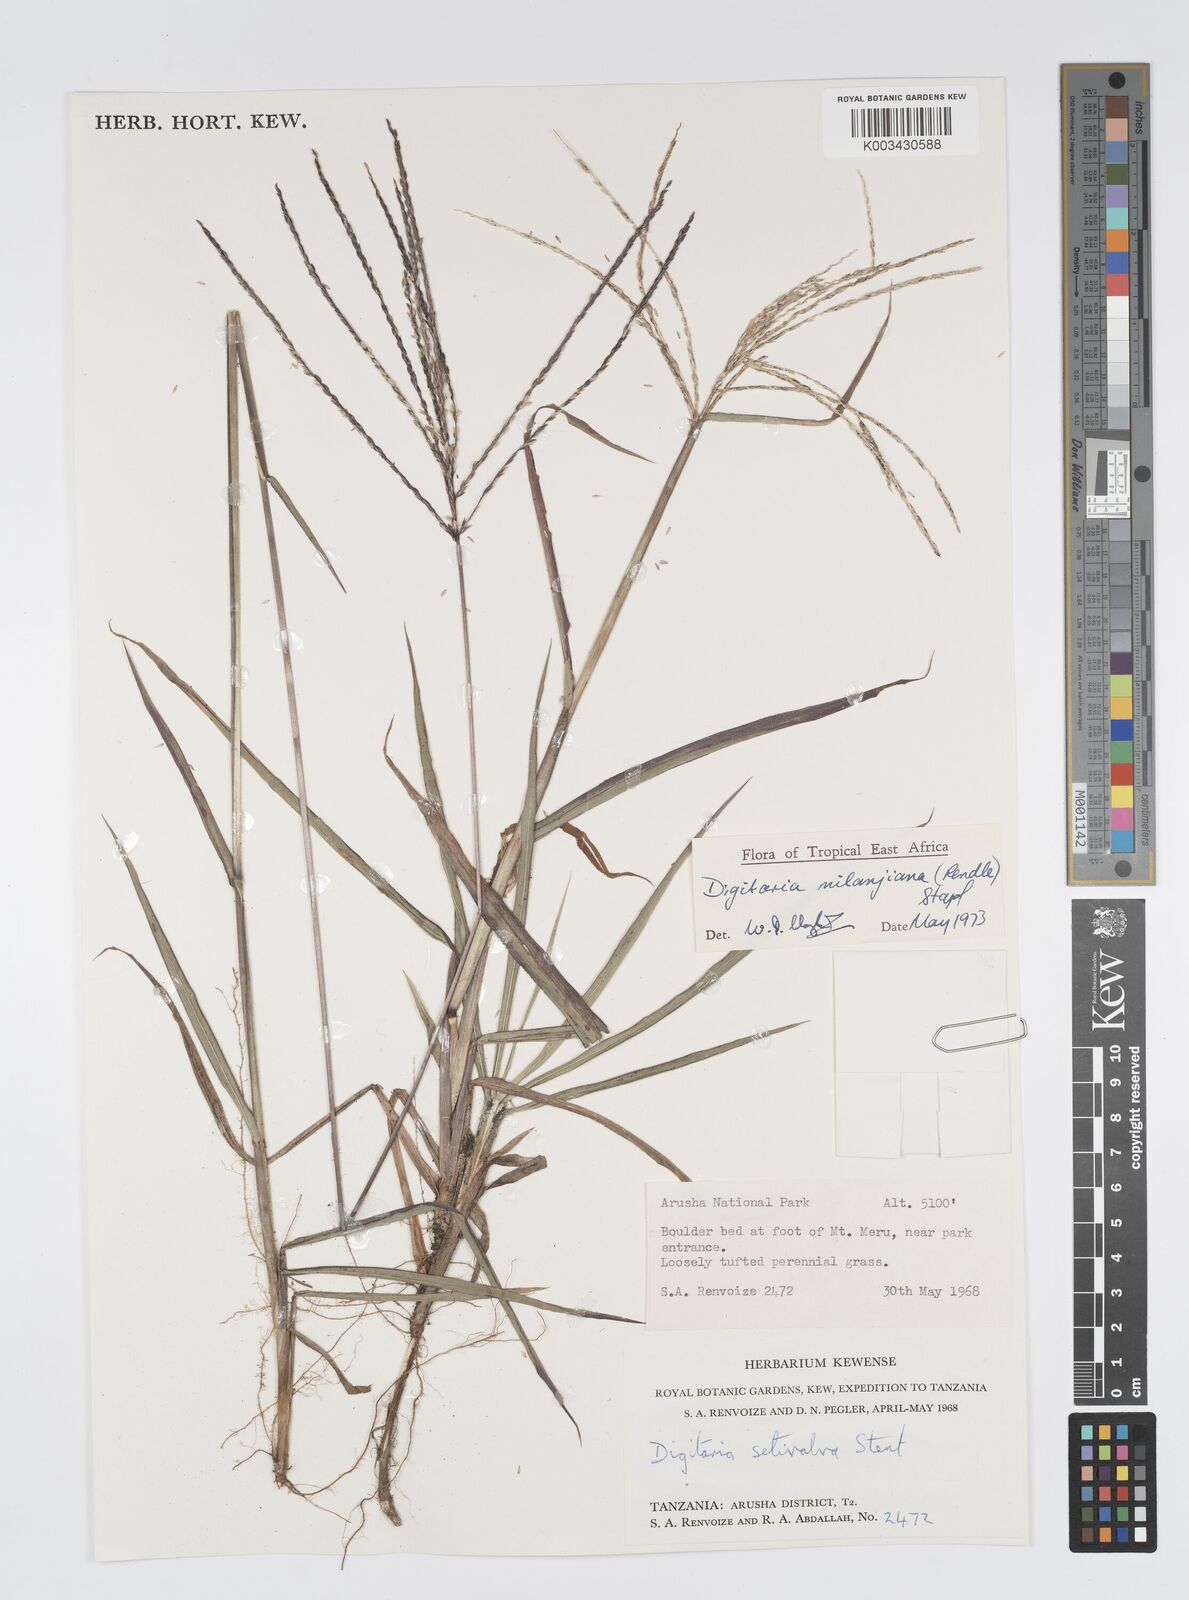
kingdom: Plantae
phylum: Tracheophyta
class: Liliopsida
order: Poales
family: Poaceae
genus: Digitaria
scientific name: Digitaria milanjiana
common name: Madagascar crabgrass
